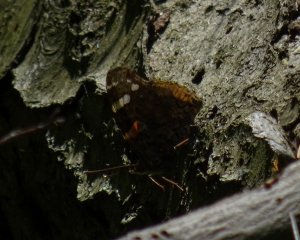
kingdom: Animalia
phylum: Arthropoda
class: Insecta
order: Lepidoptera
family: Nymphalidae
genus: Vanessa
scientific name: Vanessa atalanta
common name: Red Admiral
